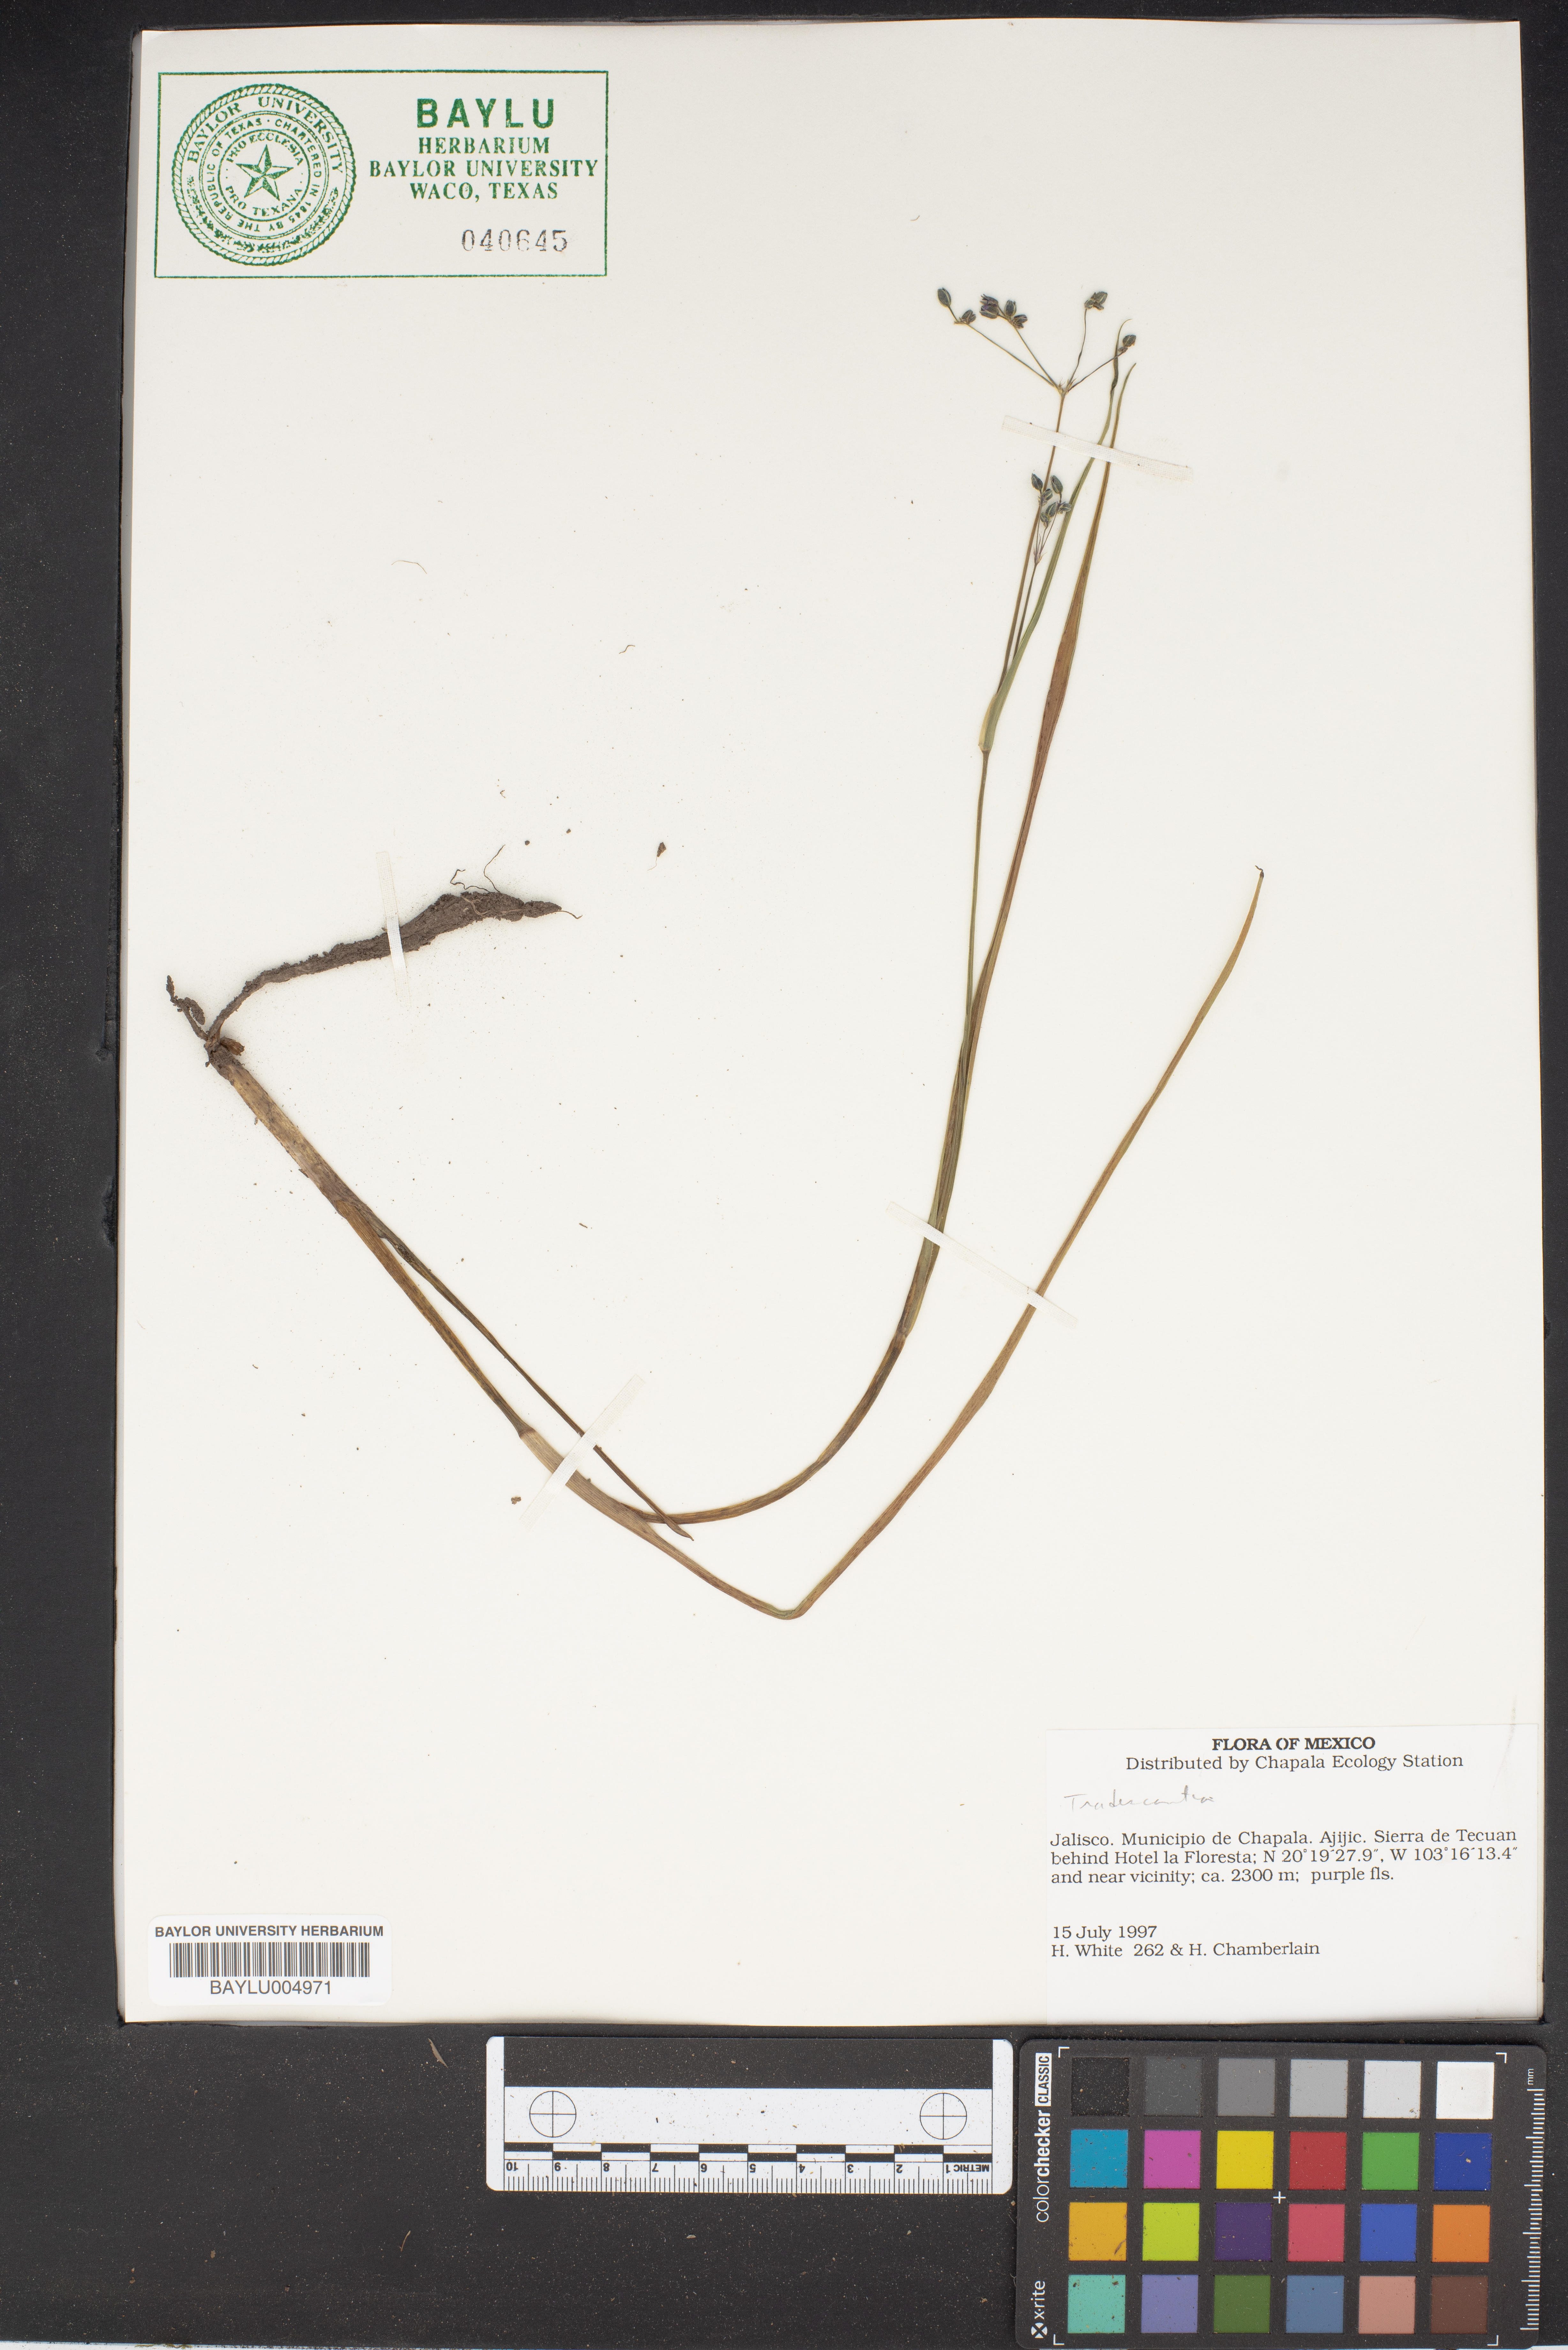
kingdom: Plantae
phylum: Tracheophyta
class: Liliopsida
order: Commelinales
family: Commelinaceae
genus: Tradescantia
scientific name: Tradescantia
